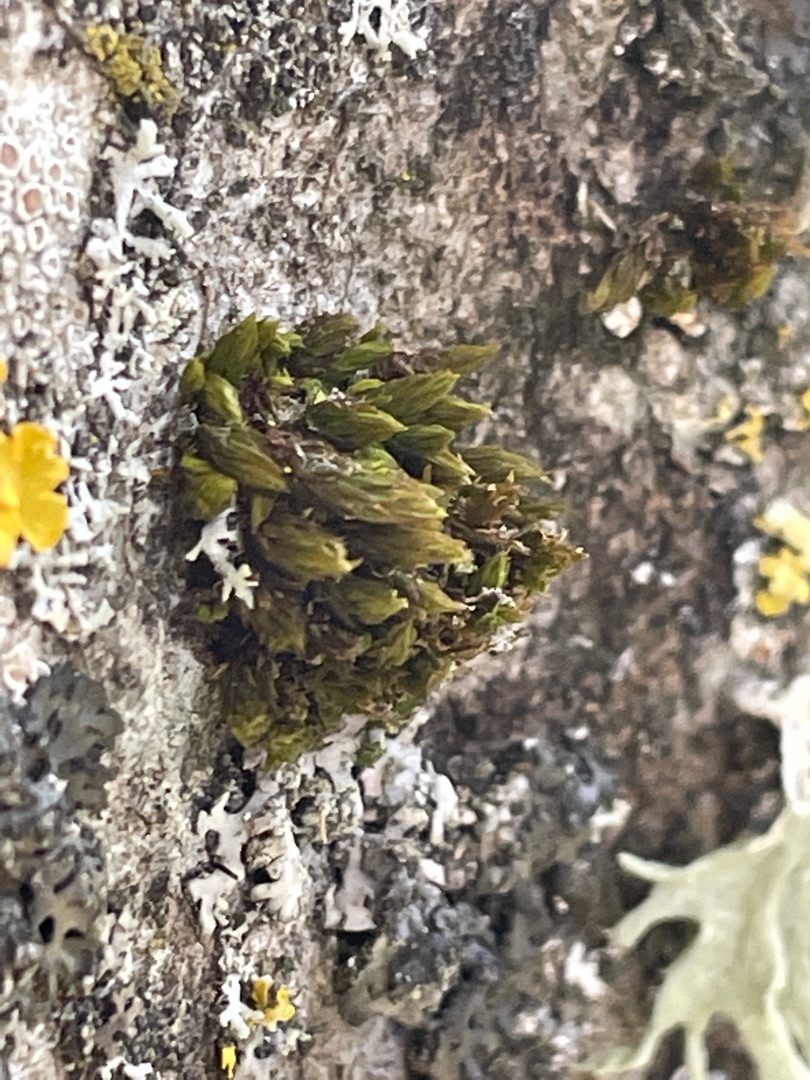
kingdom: Plantae
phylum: Bryophyta
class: Bryopsida
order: Orthotrichales
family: Orthotrichaceae
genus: Orthotrichum
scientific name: Orthotrichum
